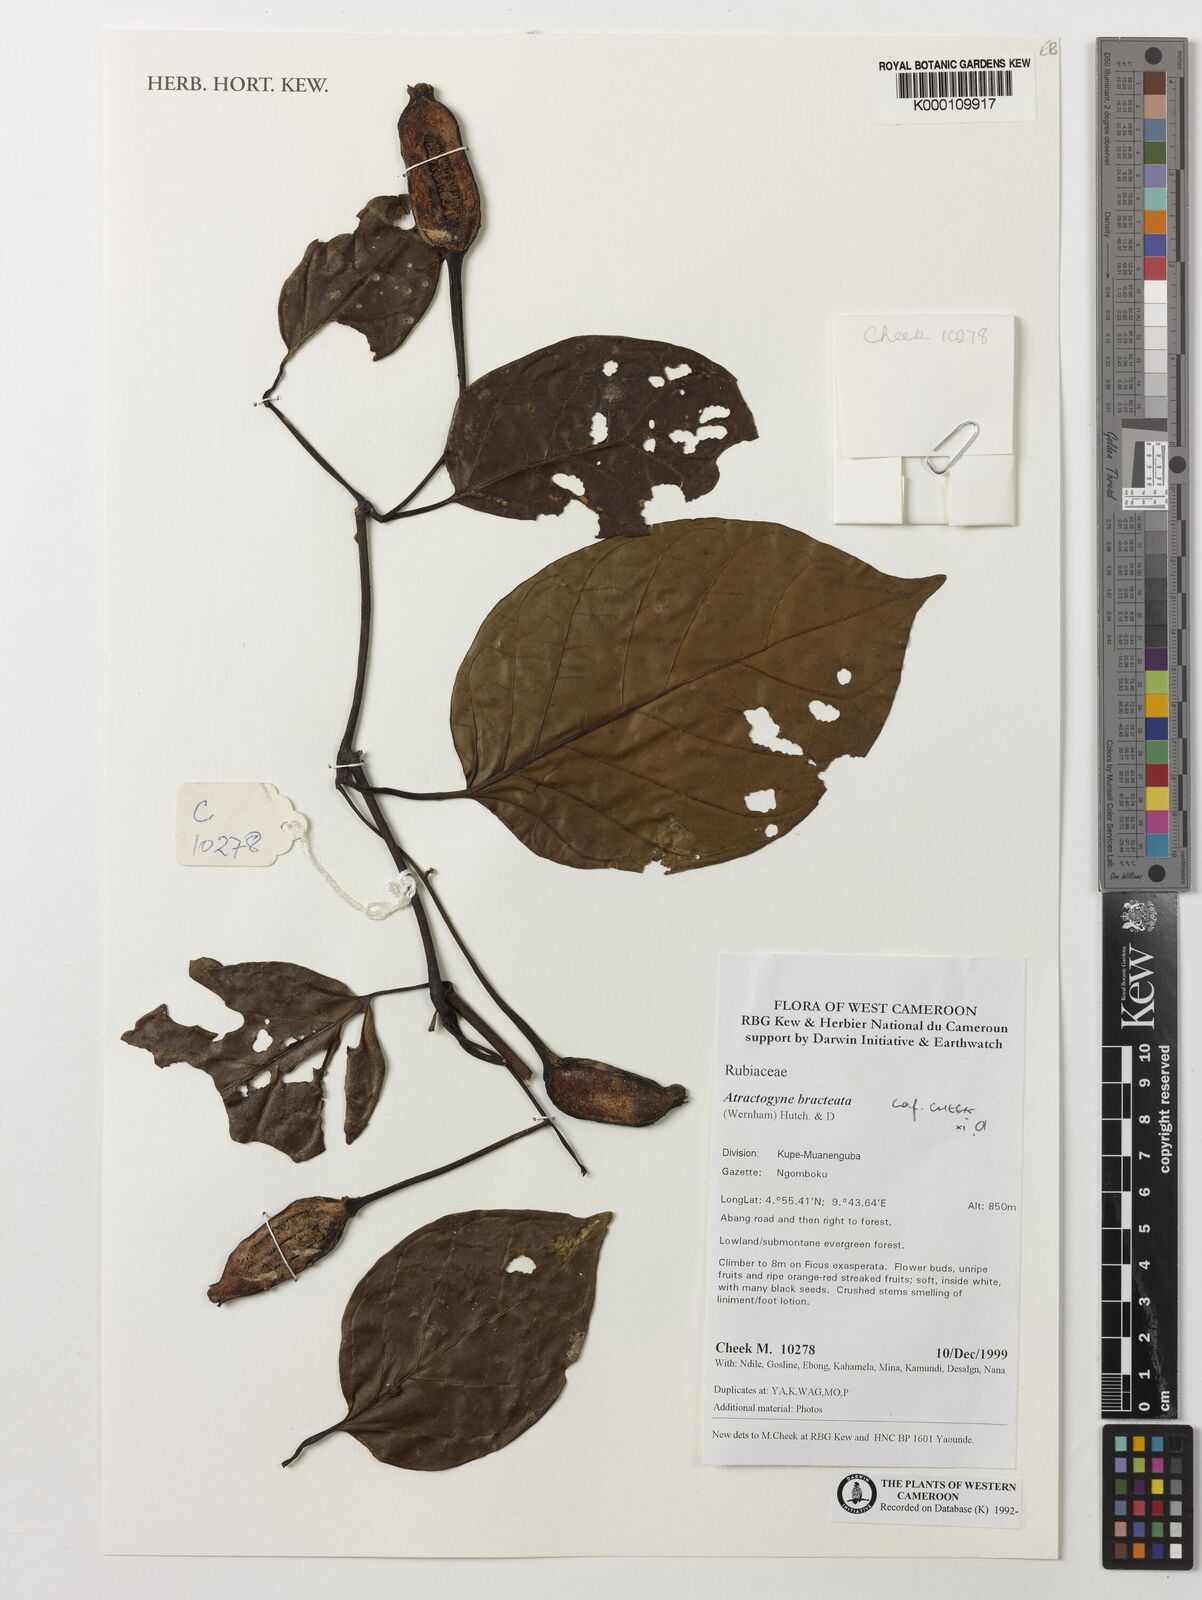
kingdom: Plantae
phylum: Tracheophyta
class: Magnoliopsida
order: Gentianales
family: Rubiaceae
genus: Atractogyne
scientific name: Atractogyne bracteata
